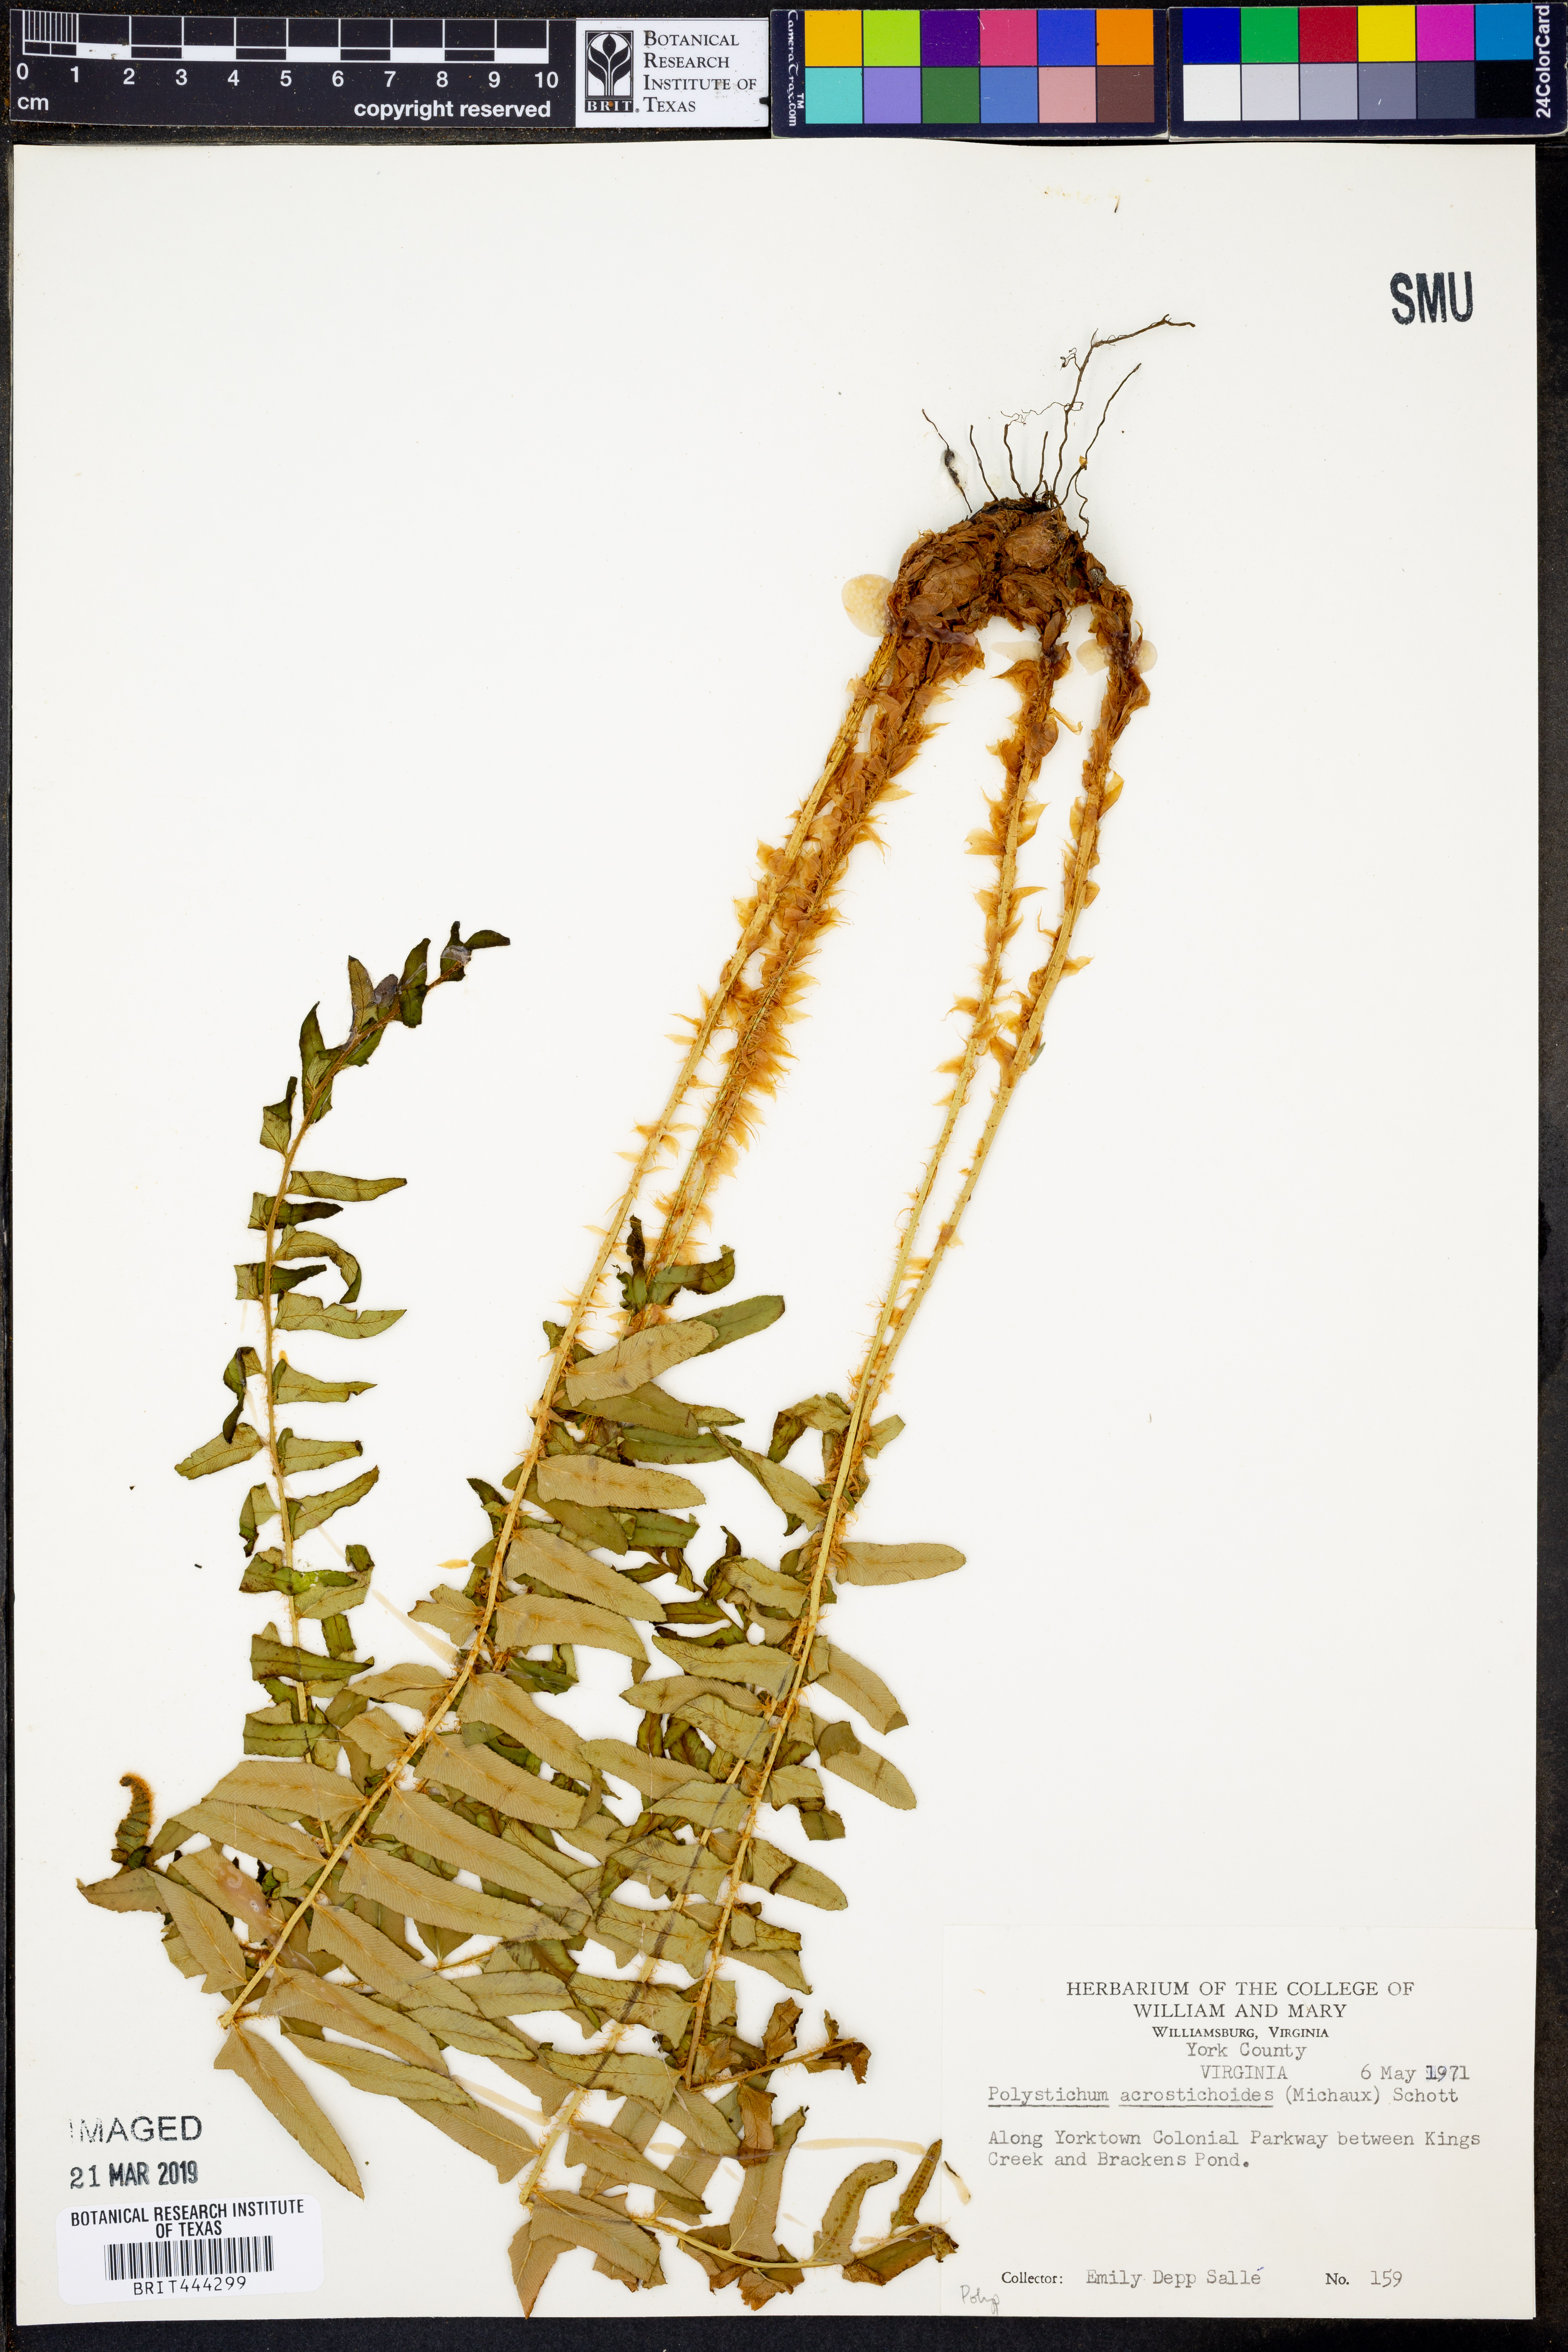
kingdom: Plantae
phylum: Tracheophyta
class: Polypodiopsida
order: Polypodiales
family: Dryopteridaceae
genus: Polystichum
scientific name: Polystichum acrostichoides
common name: Christmas fern
